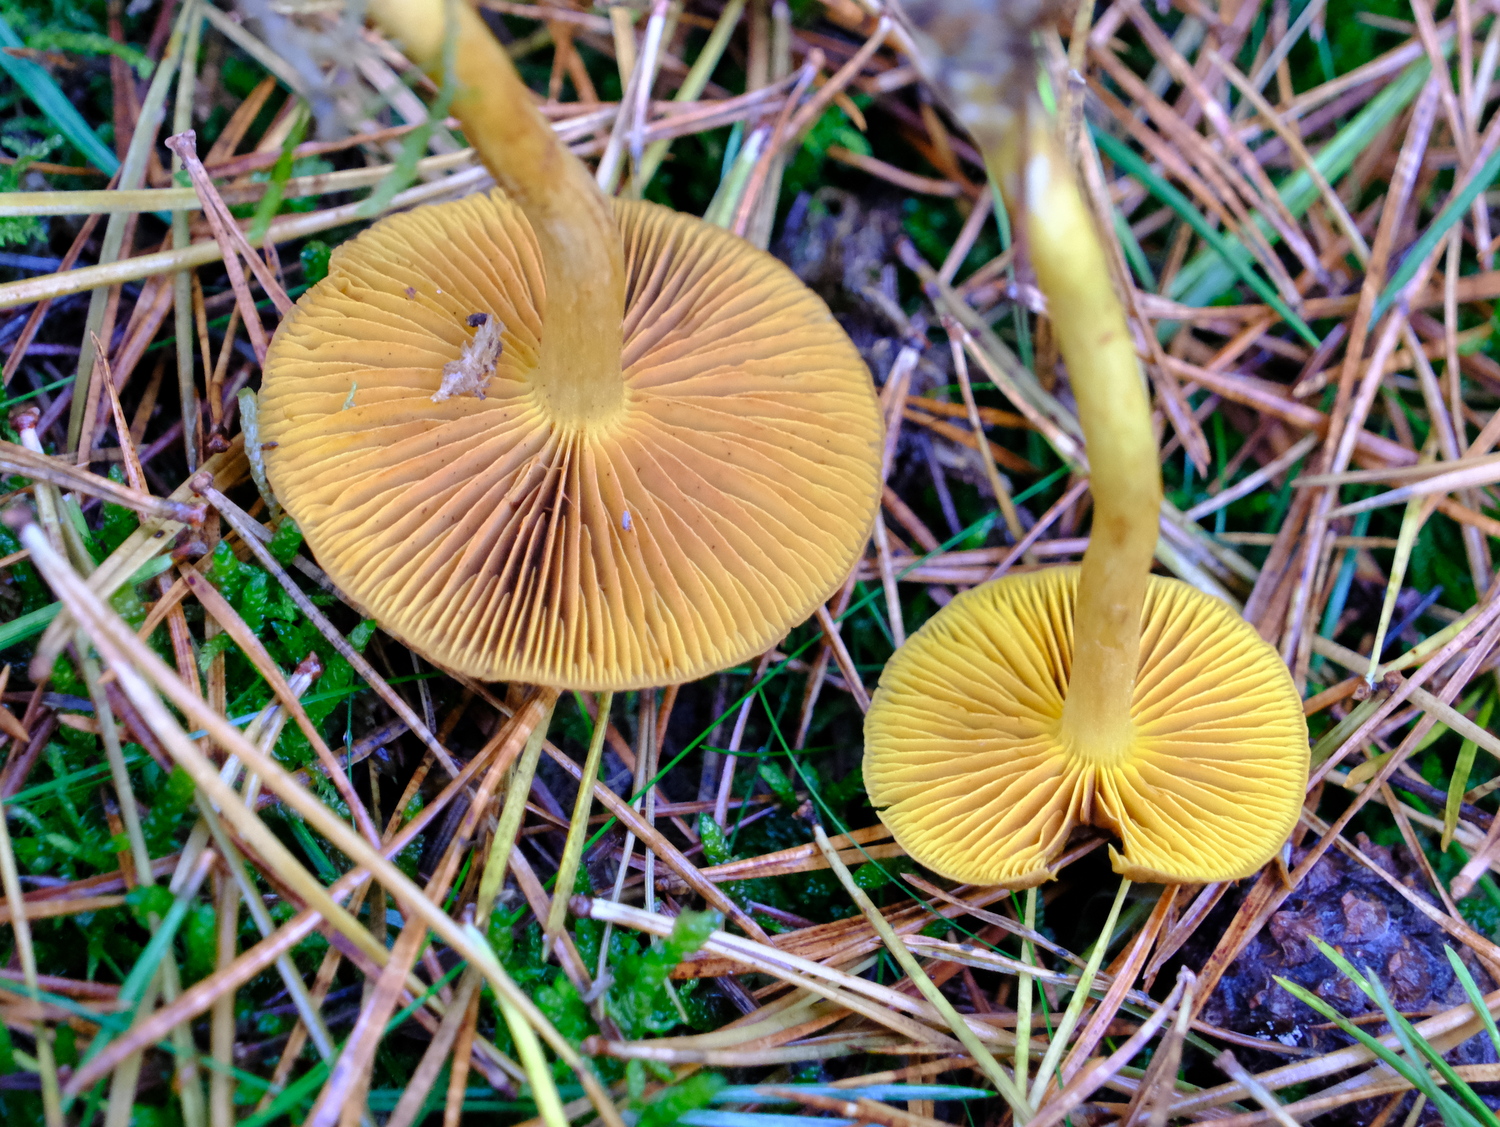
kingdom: Fungi
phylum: Basidiomycota
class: Agaricomycetes
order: Agaricales
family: Cortinariaceae
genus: Cortinarius
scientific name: Cortinarius
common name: gulbladet slørhat
